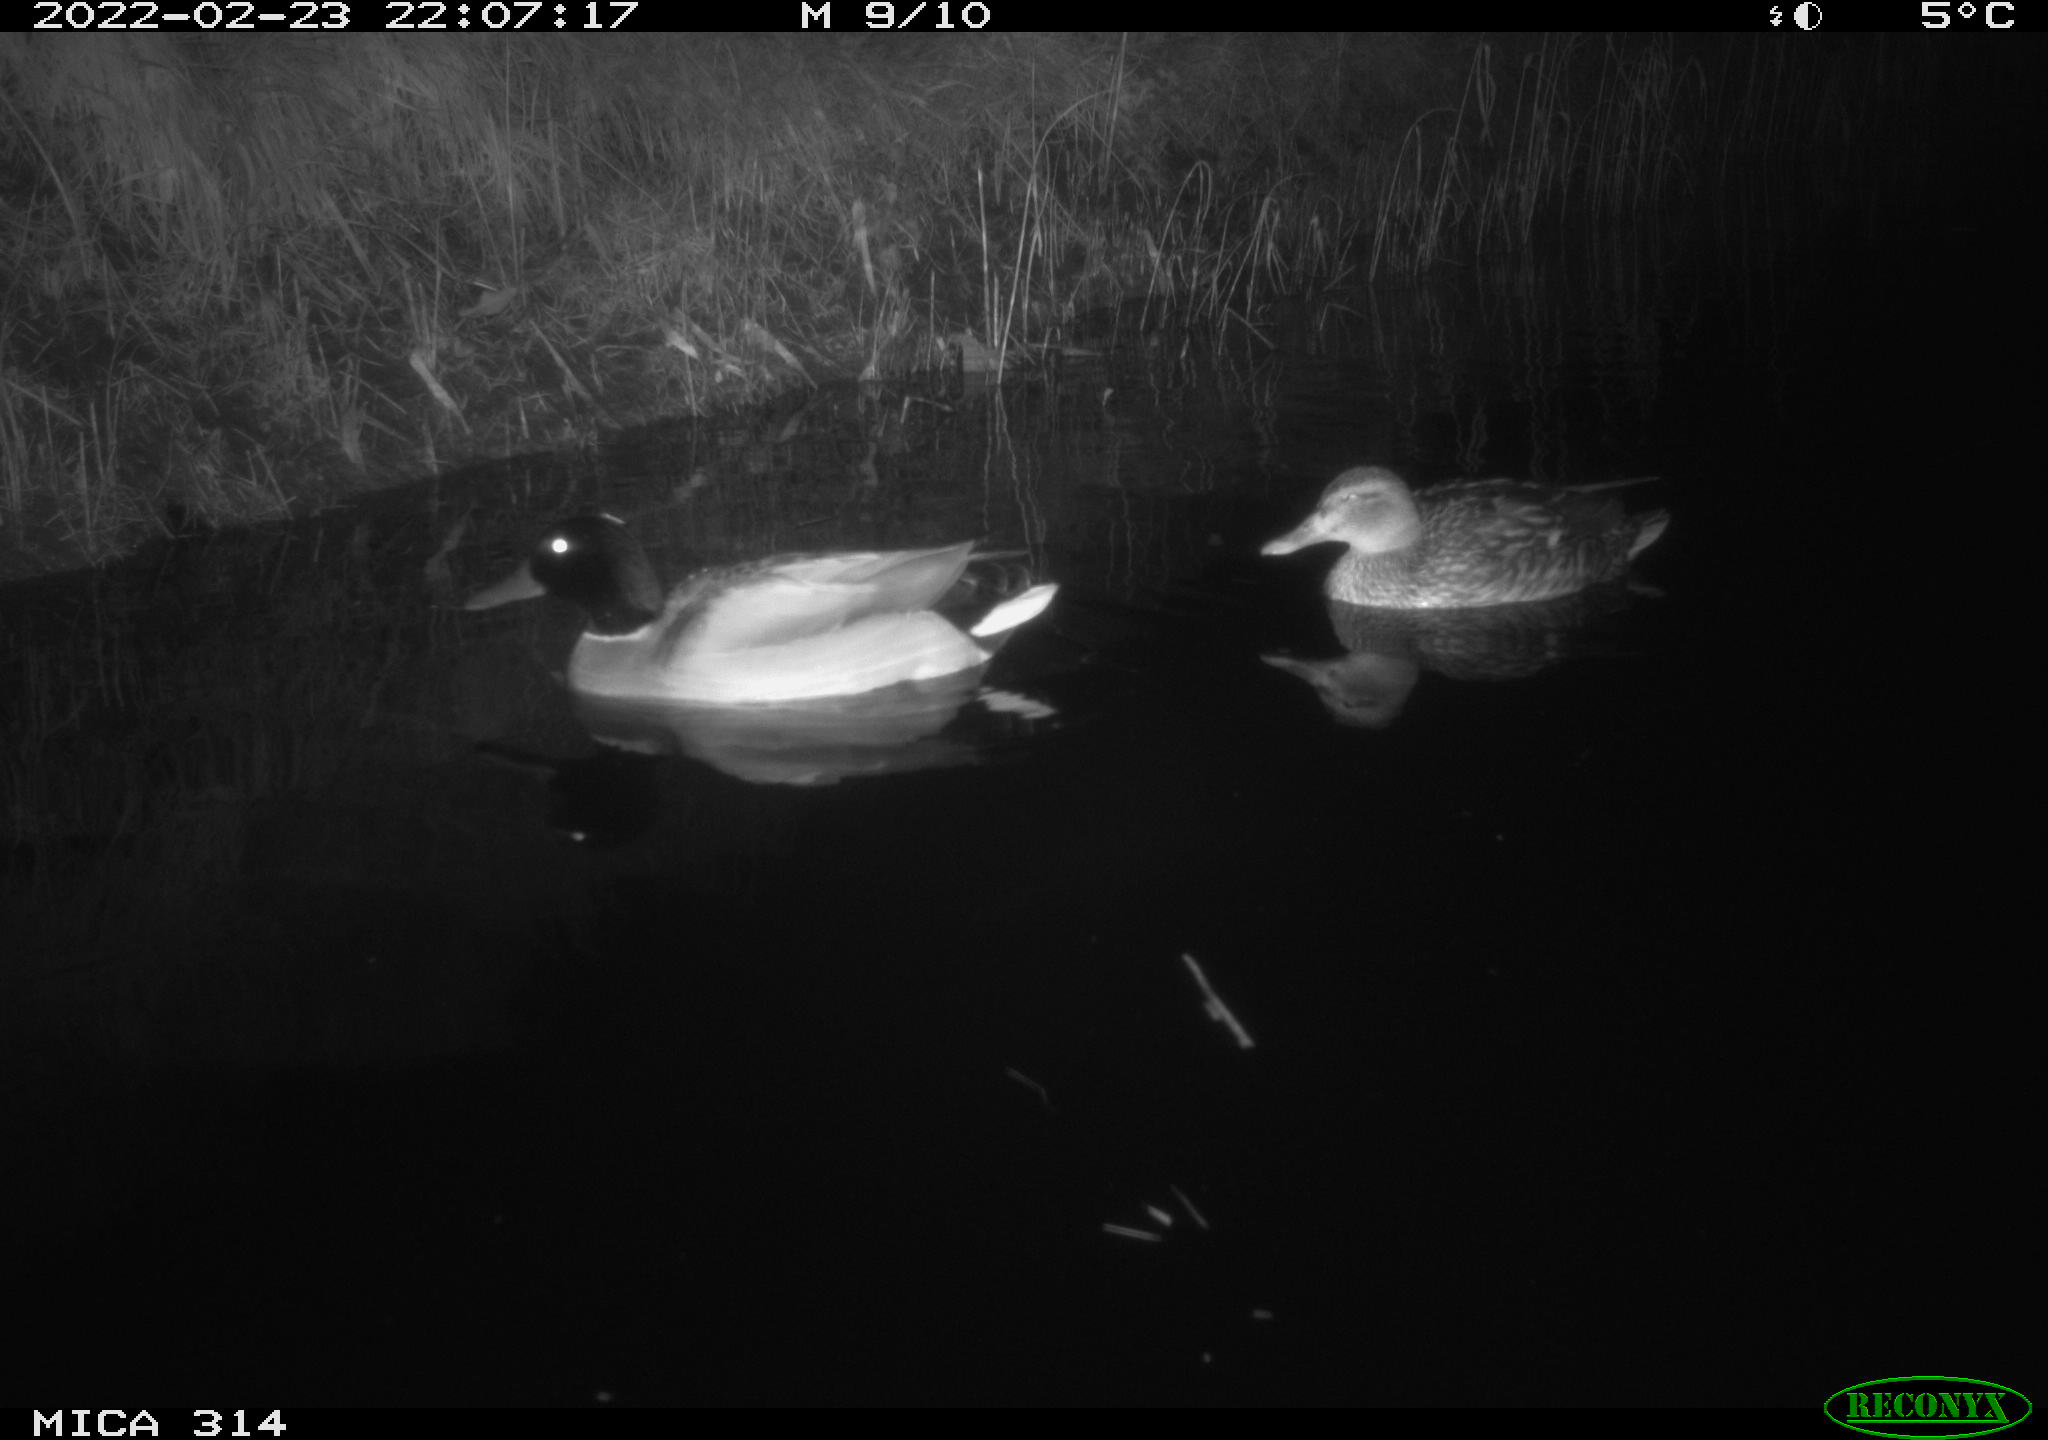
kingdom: Animalia
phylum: Chordata
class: Aves
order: Anseriformes
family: Anatidae
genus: Anas
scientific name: Anas platyrhynchos
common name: Mallard
